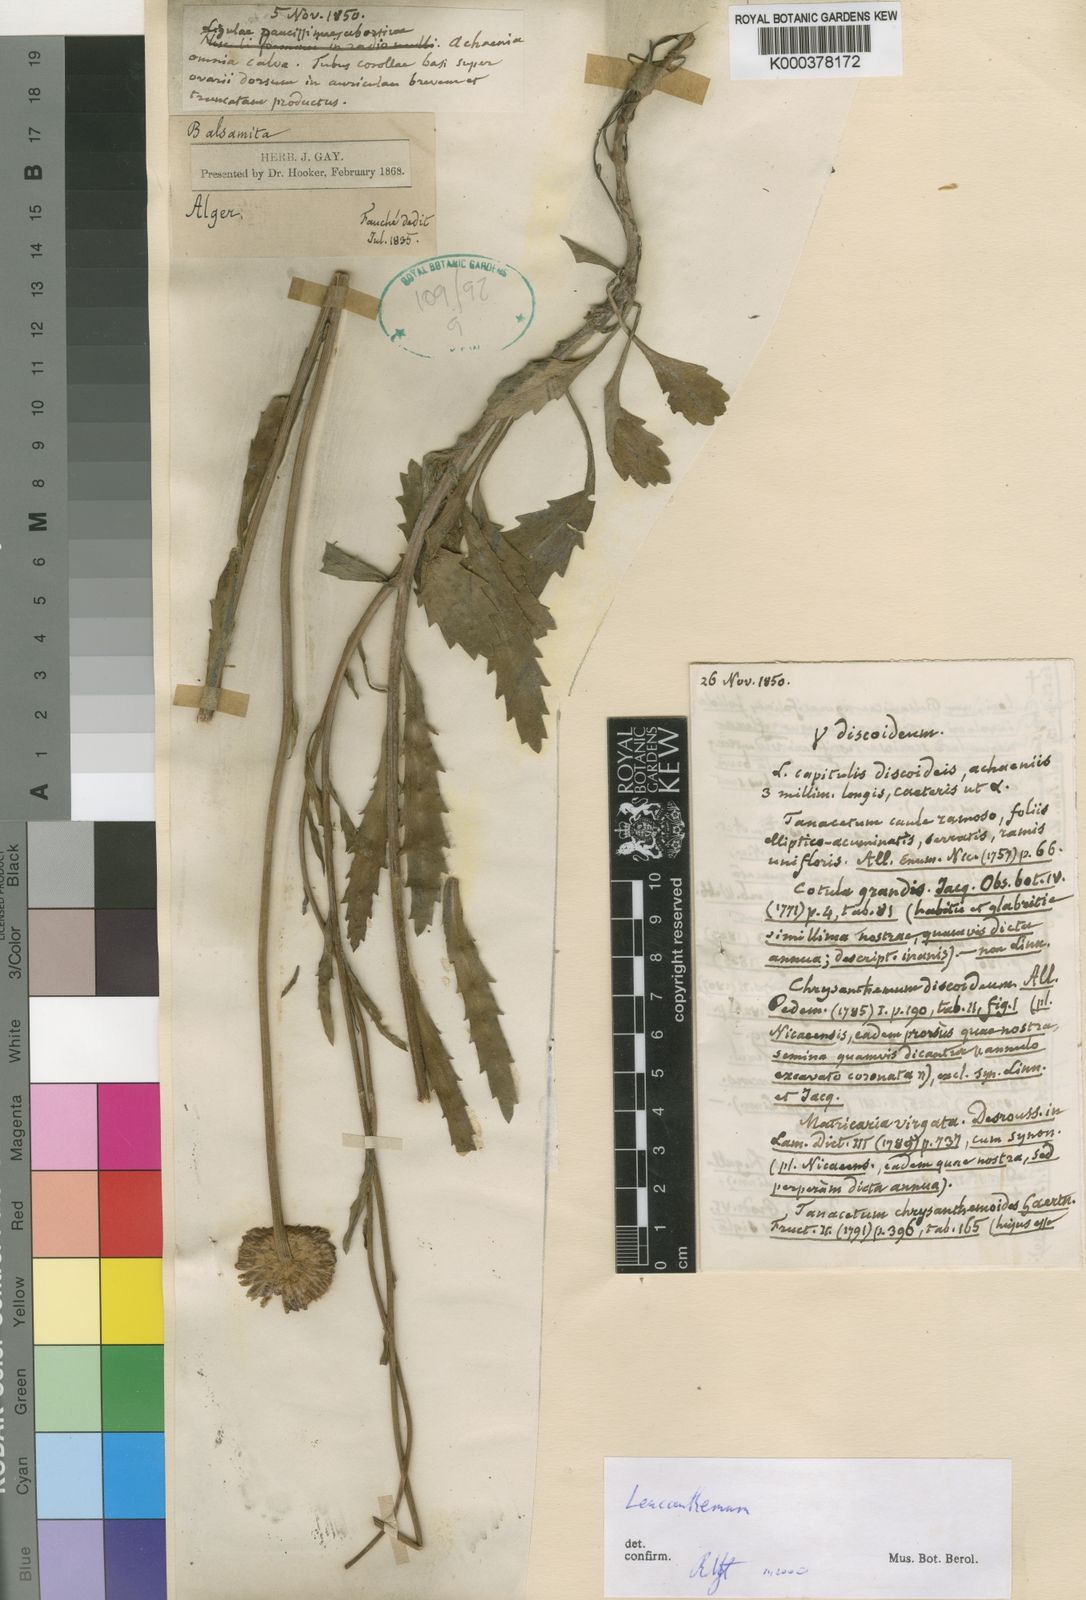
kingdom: Plantae
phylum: Tracheophyta
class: Magnoliopsida
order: Asterales
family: Asteraceae
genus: Leucanthemum
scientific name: Leucanthemum
